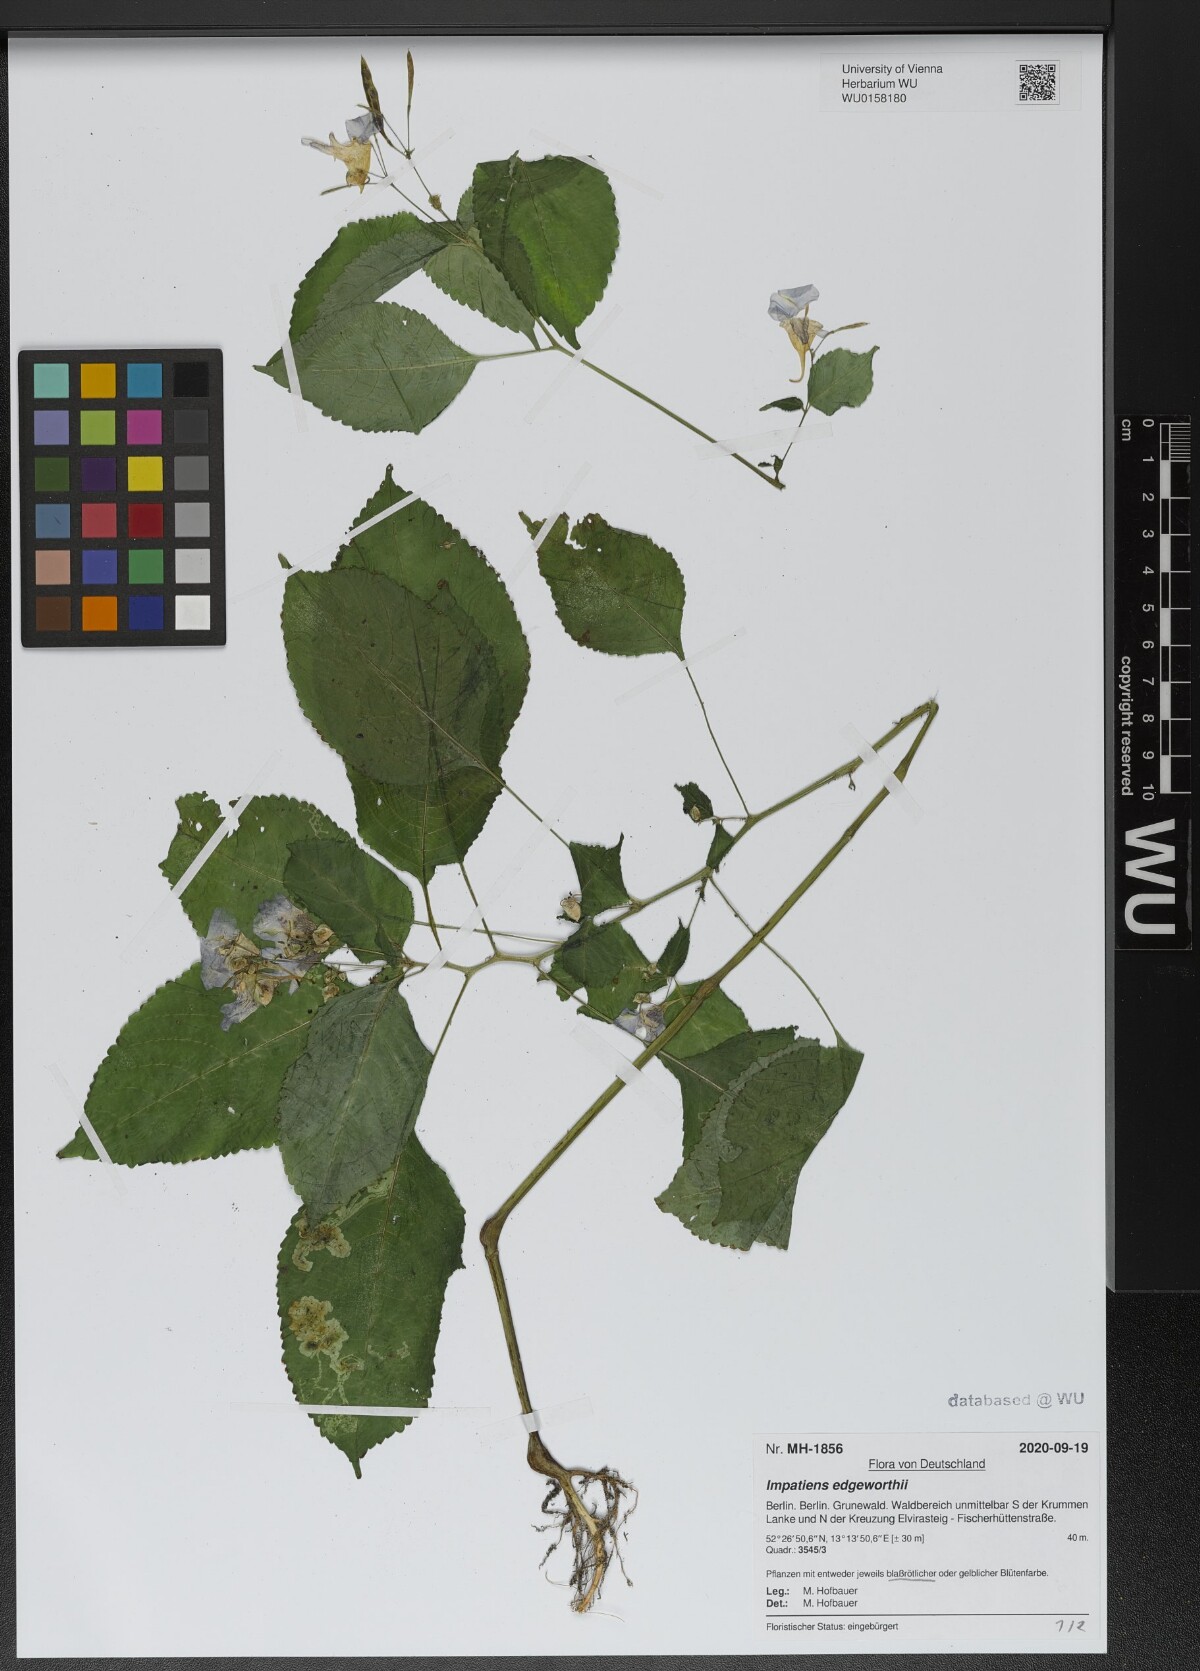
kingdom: Plantae
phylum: Tracheophyta
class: Magnoliopsida
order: Ericales
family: Balsaminaceae
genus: Impatiens
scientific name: Impatiens edgeworthii
